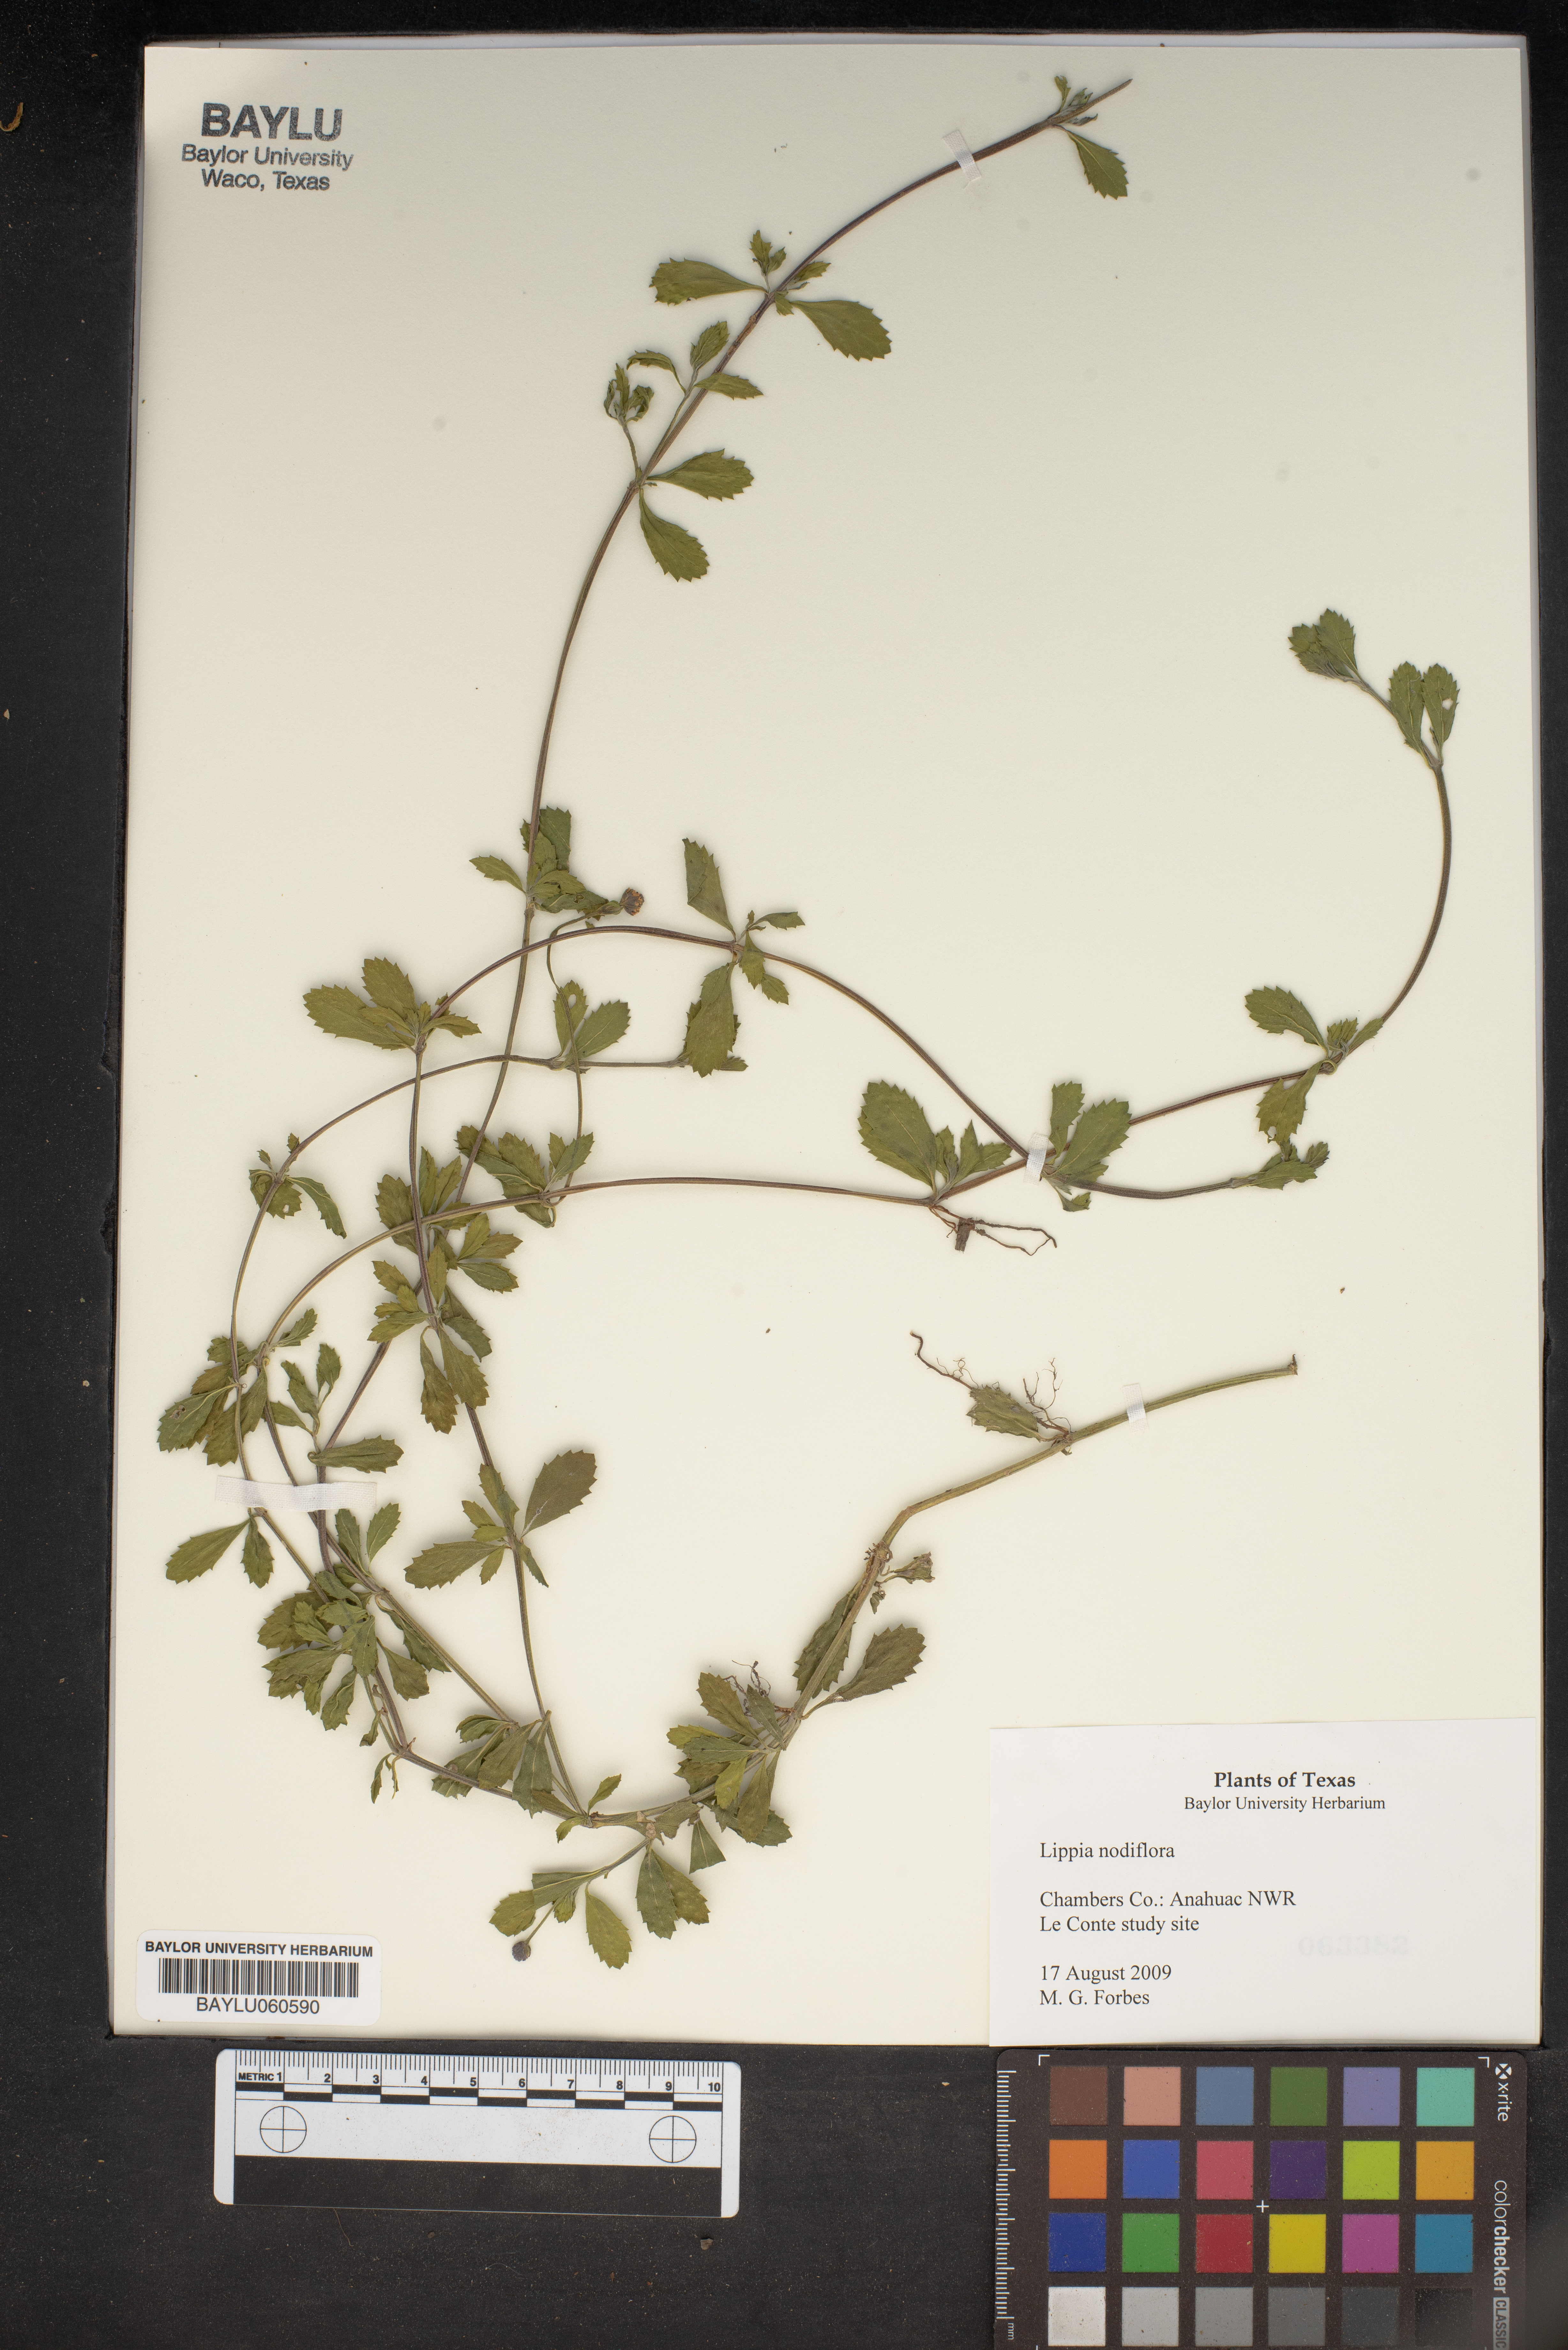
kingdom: Plantae
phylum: Tracheophyta
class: Magnoliopsida
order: Lamiales
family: Verbenaceae
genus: Phyla
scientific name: Phyla nodiflora
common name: Frogfruit
